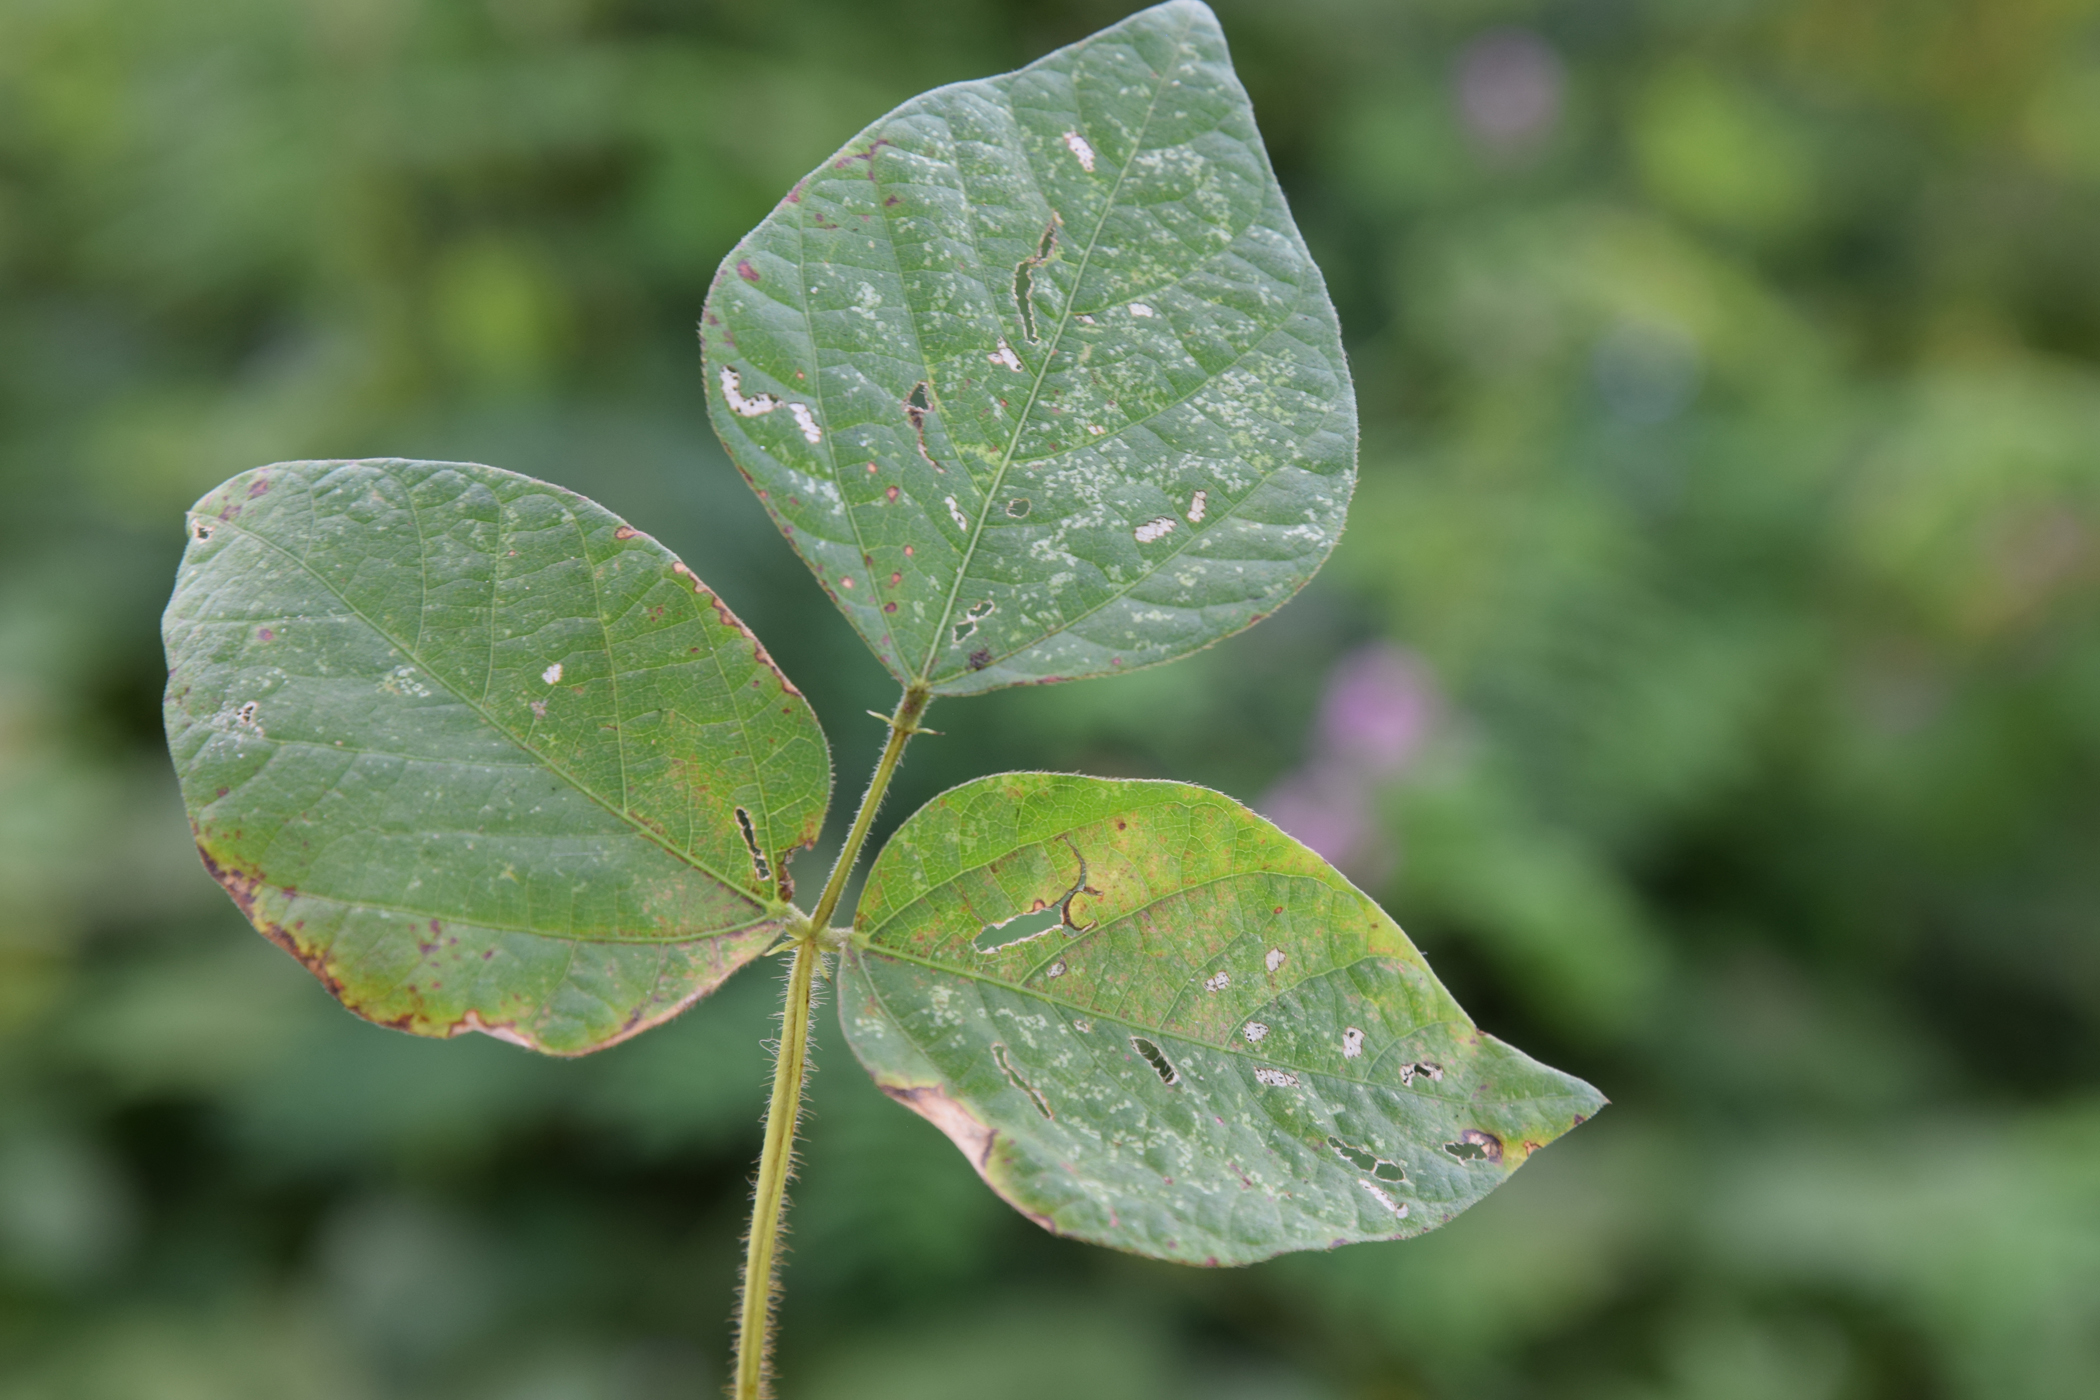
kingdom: Plantae
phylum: Tracheophyta
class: Magnoliopsida
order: Fabales
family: Fabaceae
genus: Vigna
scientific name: Vigna umbellata
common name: Oriental-bean
